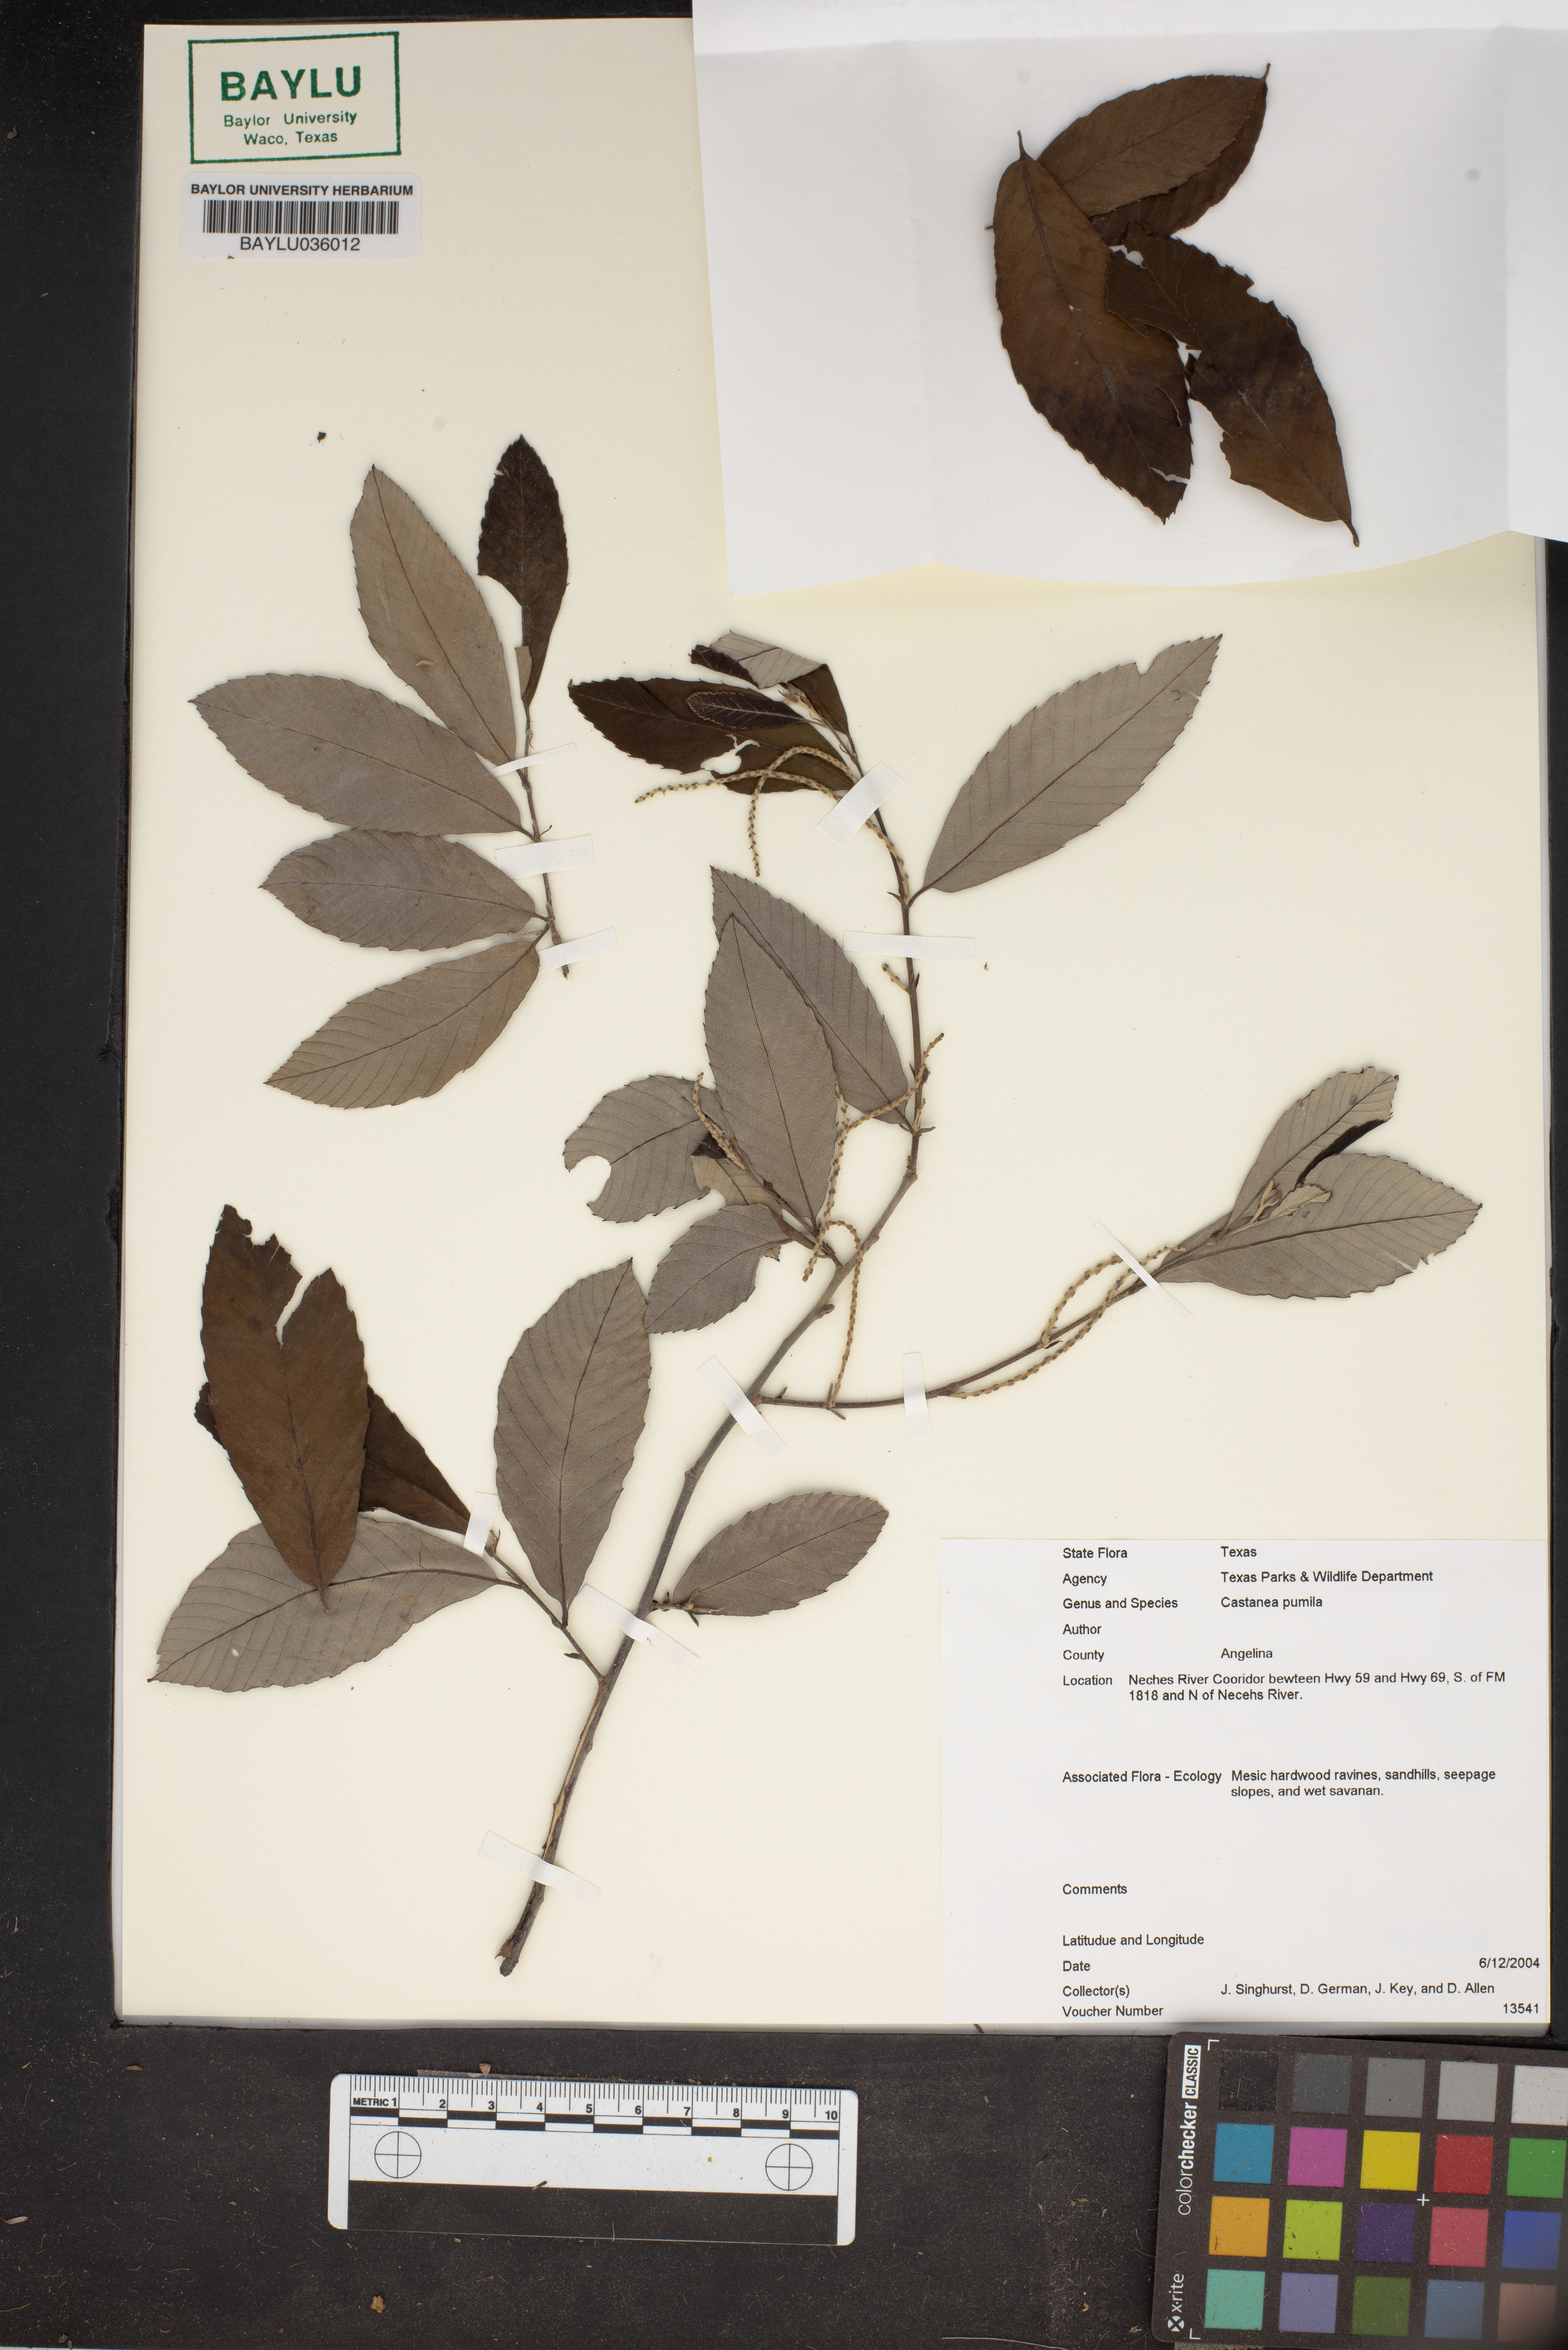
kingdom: Plantae
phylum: Tracheophyta
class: Magnoliopsida
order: Fagales
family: Fagaceae
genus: Castanea
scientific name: Castanea pumila
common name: Chinkapin
